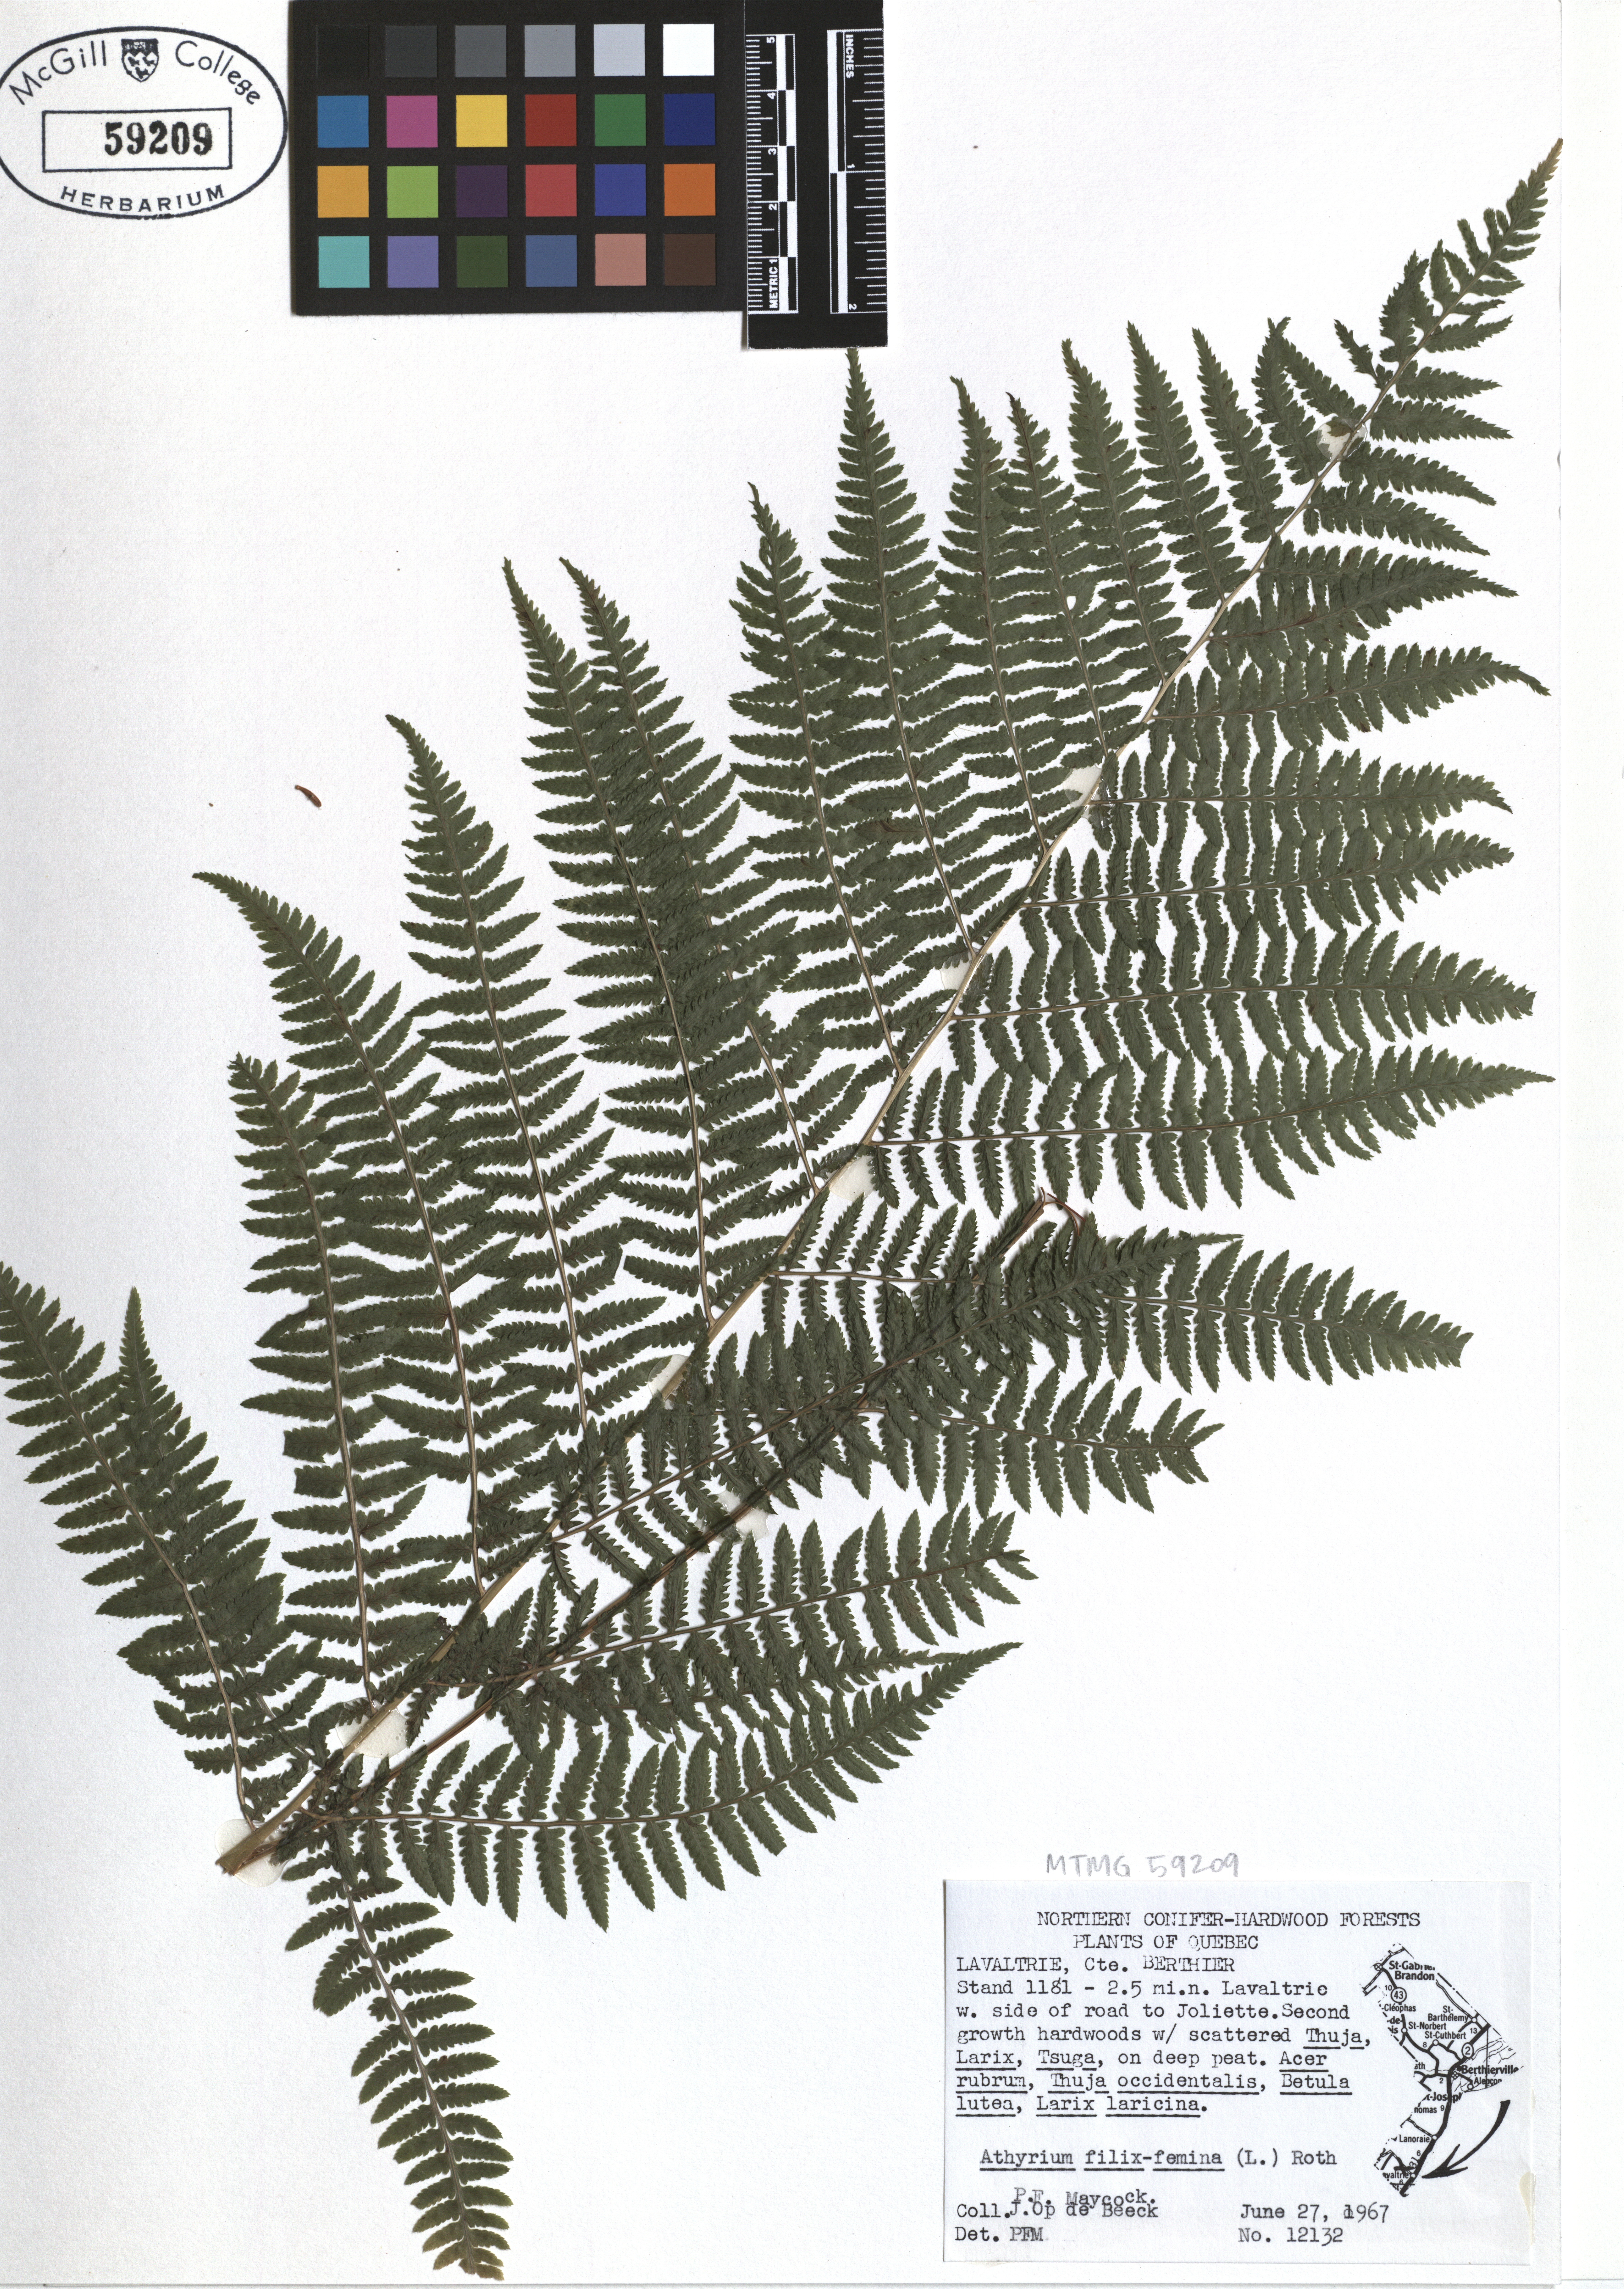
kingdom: Plantae
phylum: Tracheophyta
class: Polypodiopsida
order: Polypodiales
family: Athyriaceae
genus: Athyrium
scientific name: Athyrium filix-femina
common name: Lady fern
